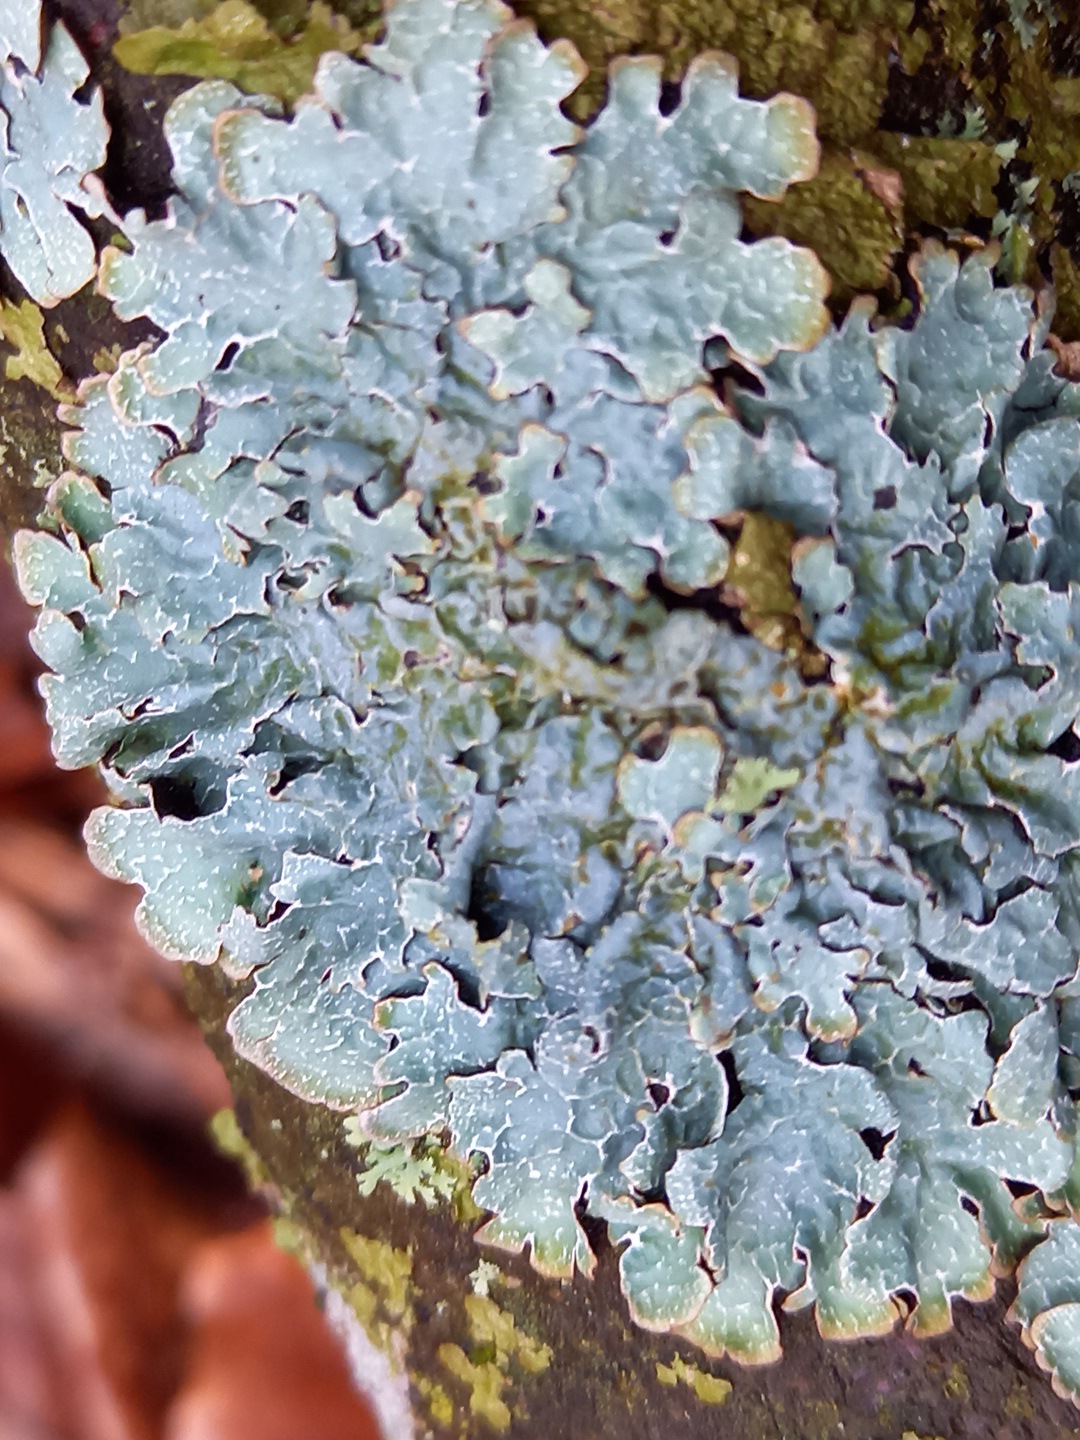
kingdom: Fungi
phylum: Ascomycota
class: Lecanoromycetes
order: Lecanorales
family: Parmeliaceae
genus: Parmelia
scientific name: Parmelia sulcata
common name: rynket skållav
